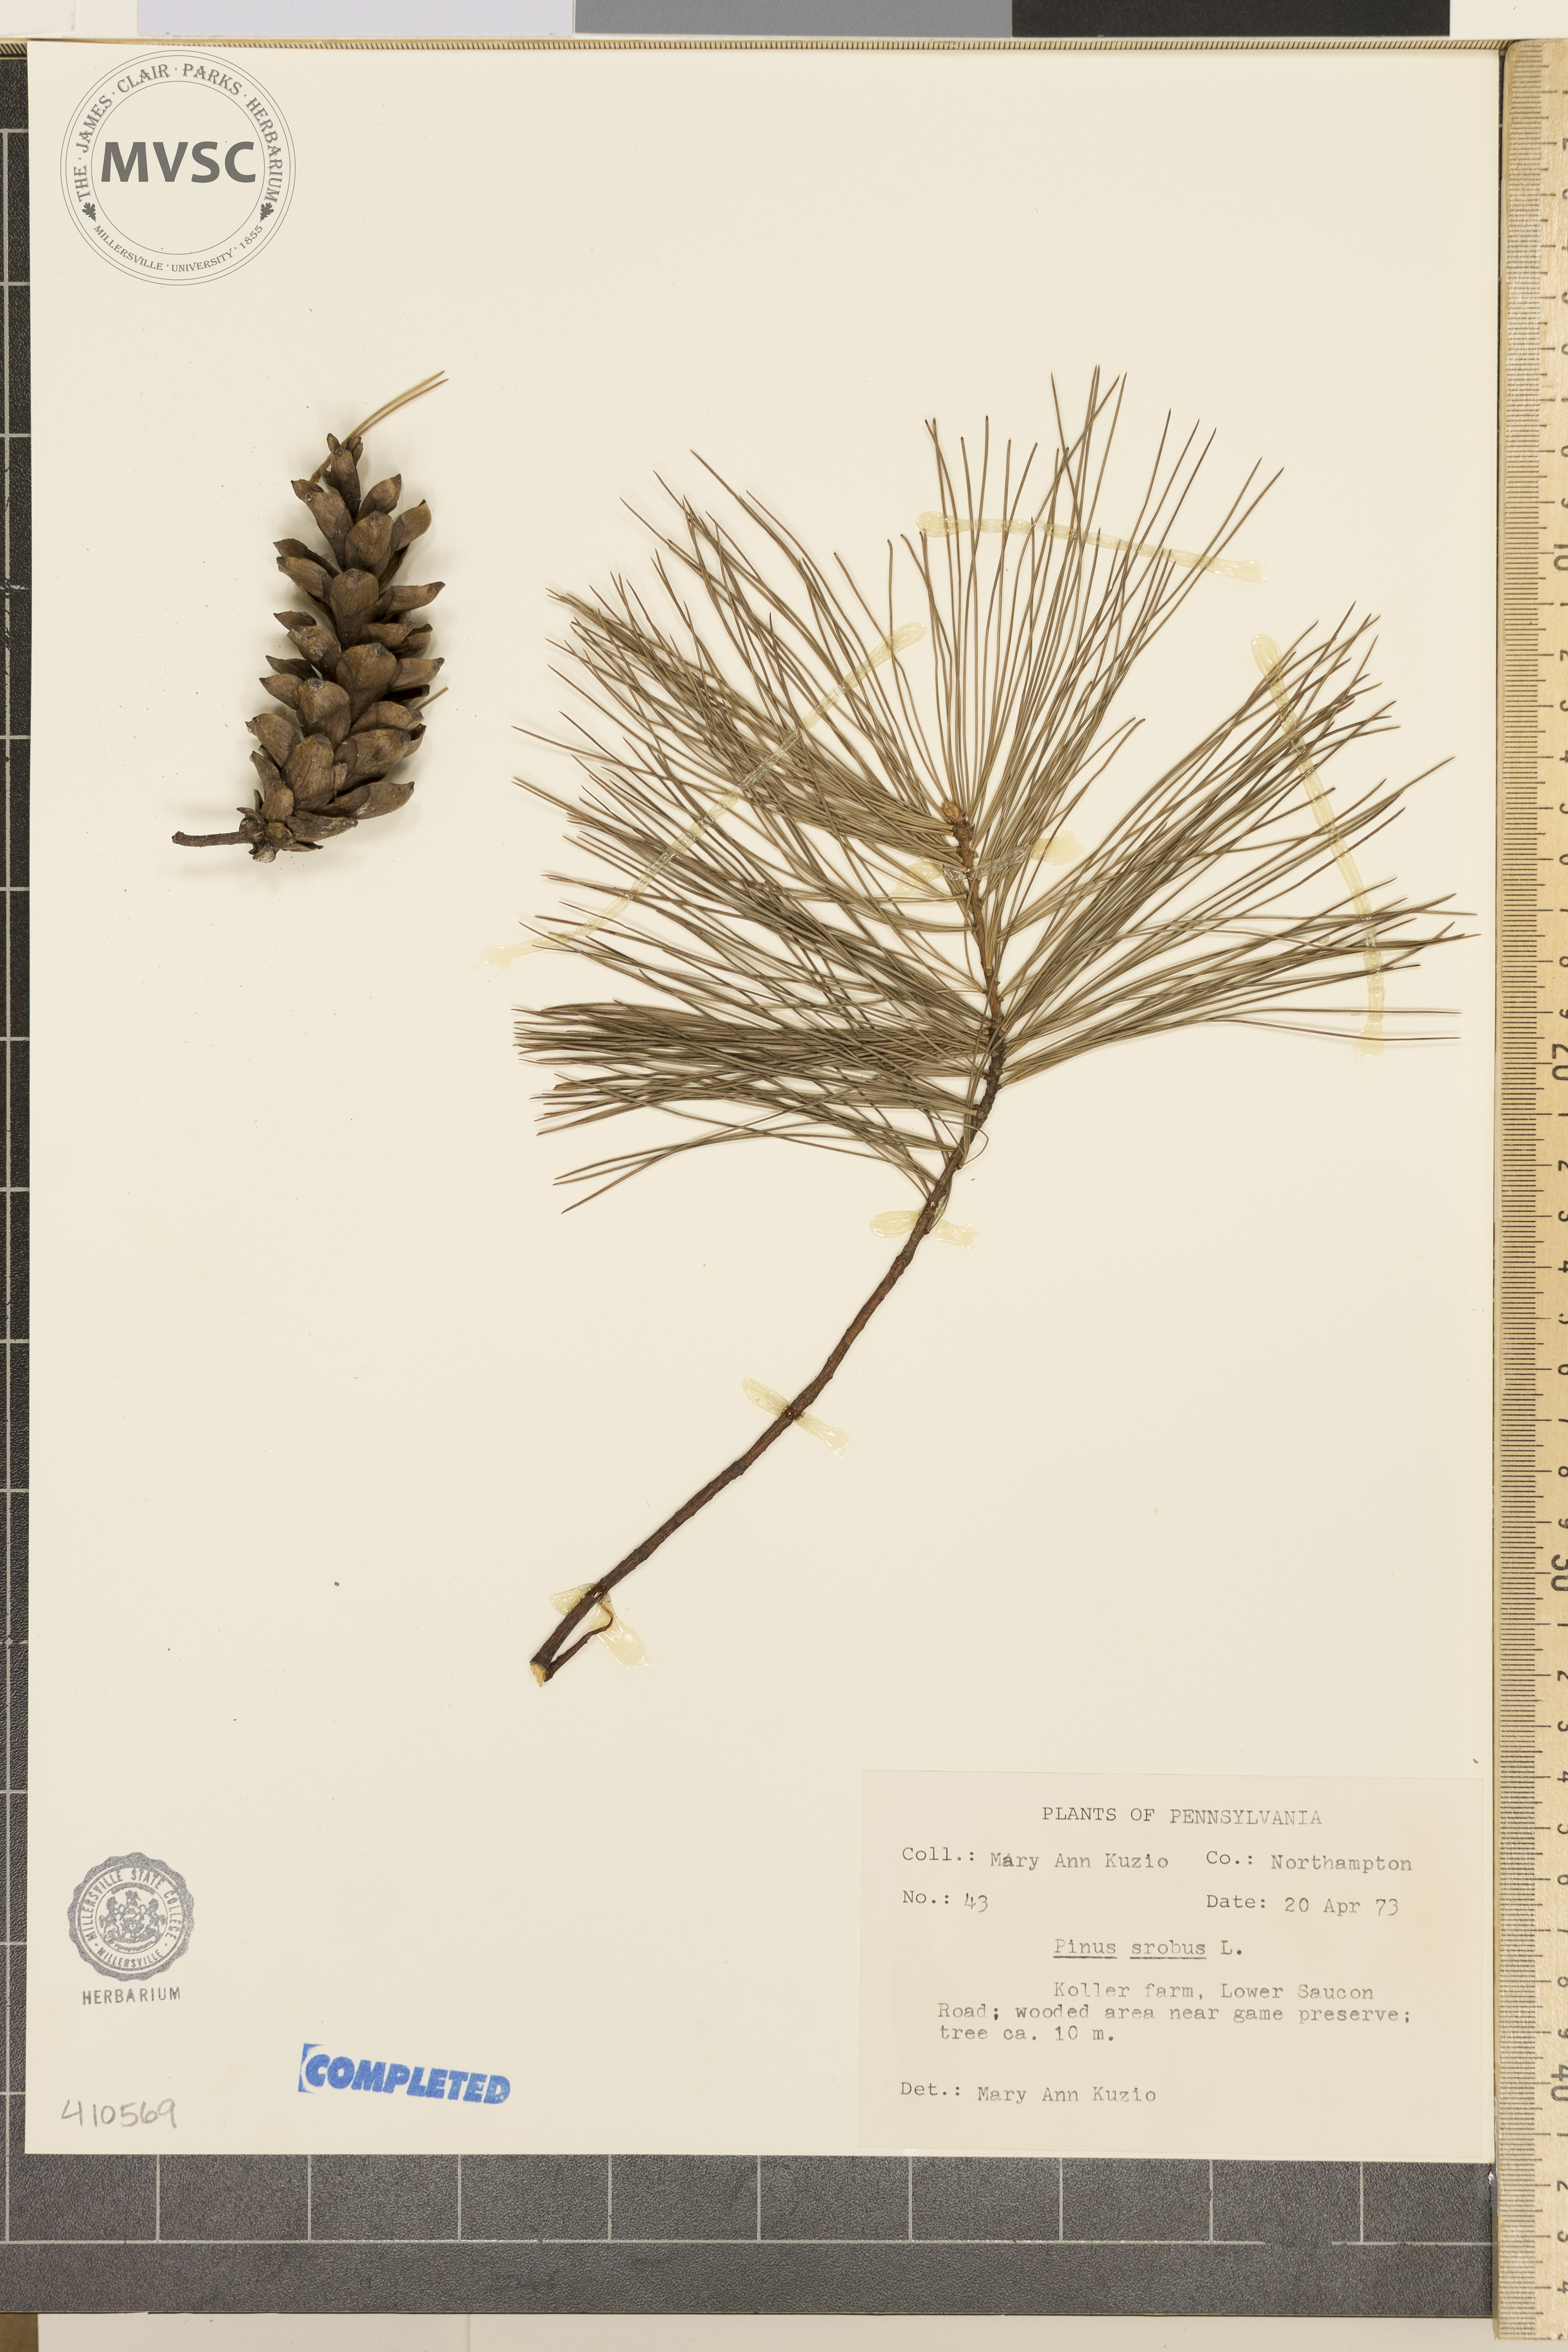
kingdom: Plantae
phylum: Tracheophyta
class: Pinopsida
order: Pinales
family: Pinaceae
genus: Pinus
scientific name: Pinus strobus
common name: Weymouth pine
